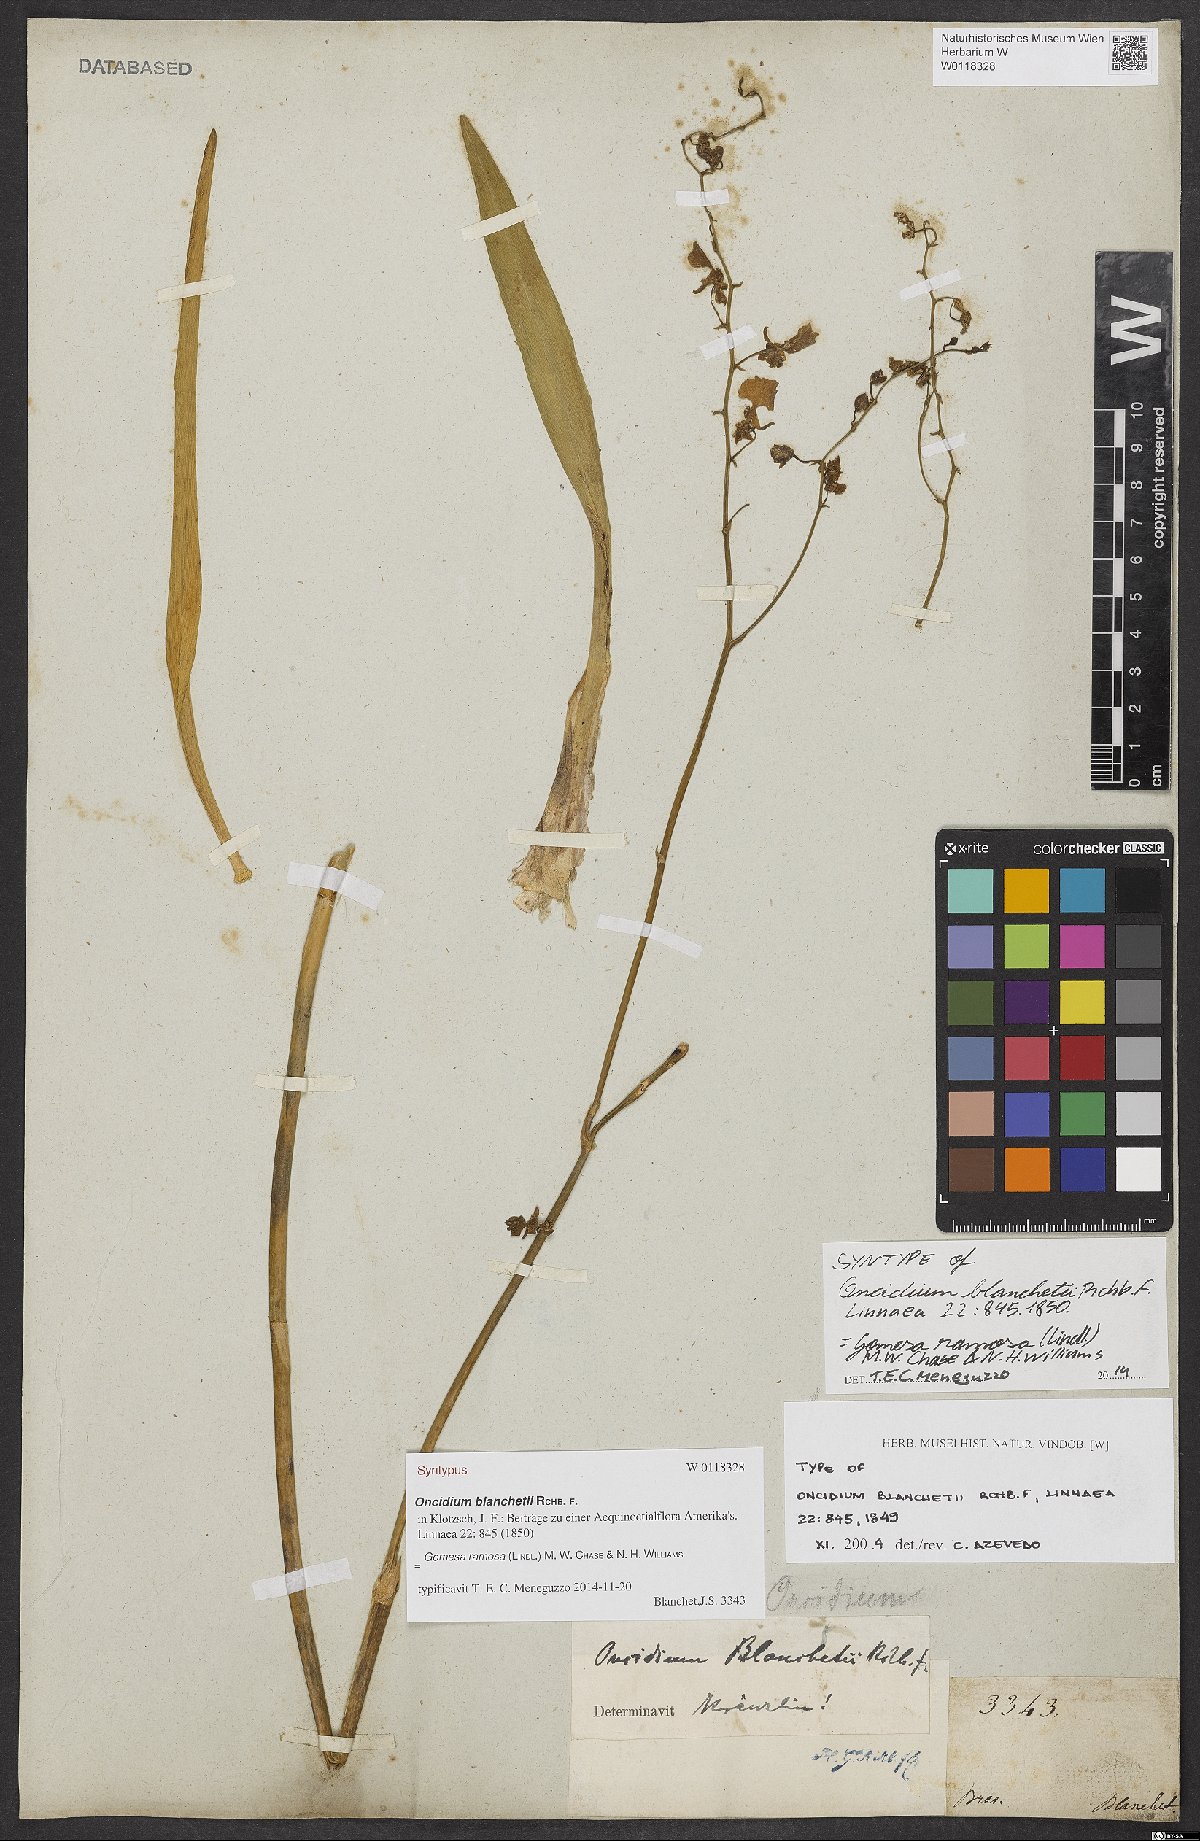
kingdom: Plantae
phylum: Tracheophyta
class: Liliopsida
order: Asparagales
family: Orchidaceae
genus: Gomesa
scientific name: Gomesa blanchetii
